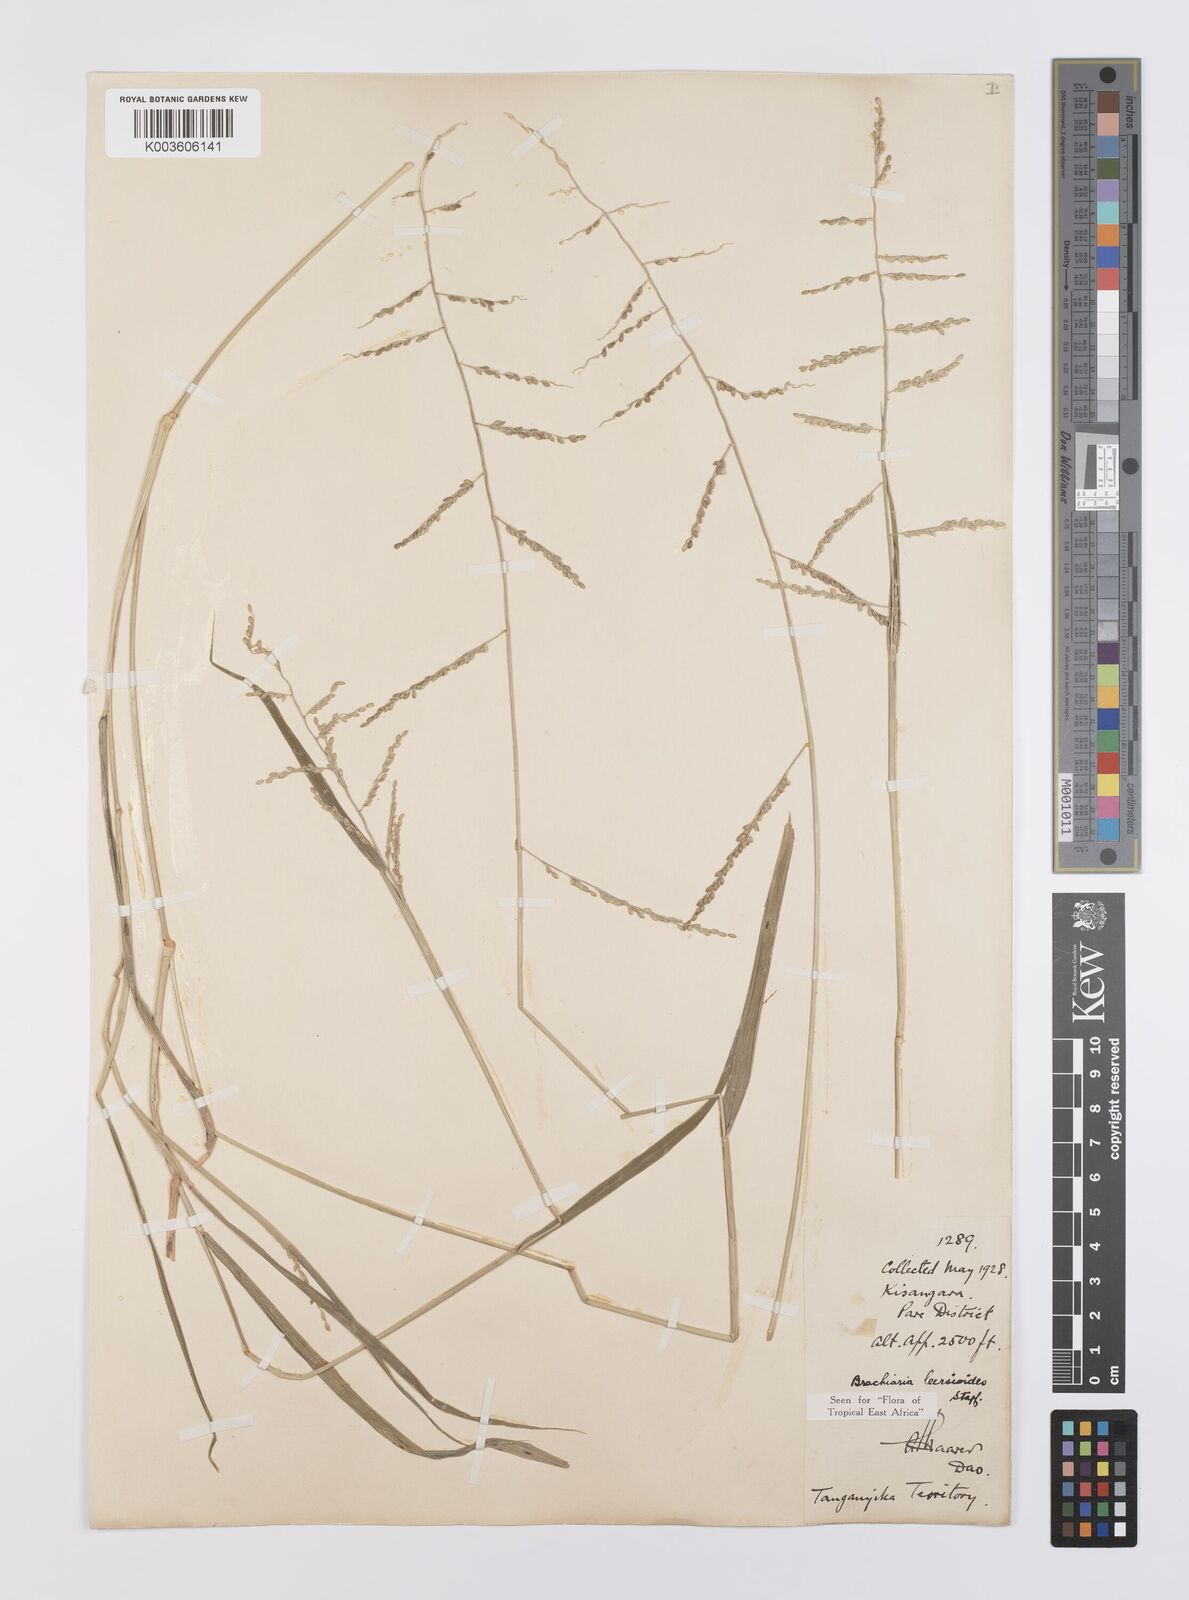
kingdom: Plantae
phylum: Tracheophyta
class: Liliopsida
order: Poales
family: Poaceae
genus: Urochloa
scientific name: Urochloa leersioides
